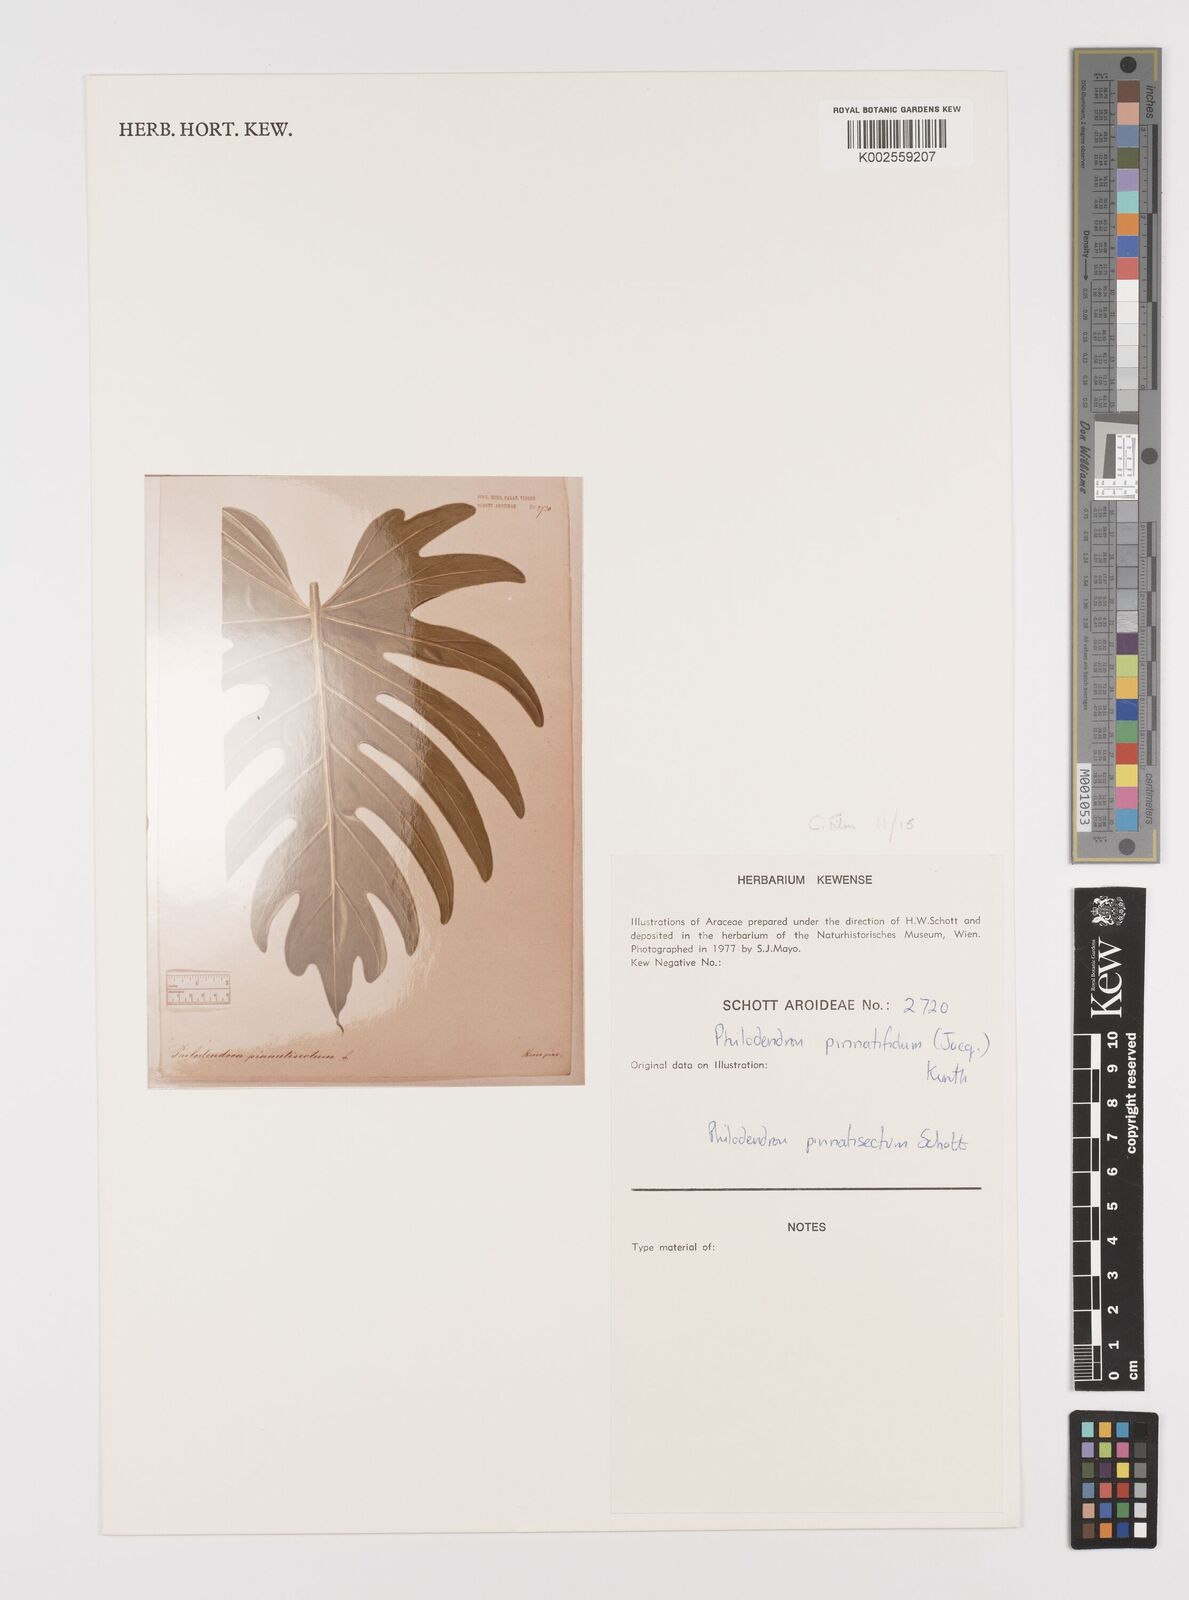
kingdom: Plantae
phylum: Tracheophyta
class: Liliopsida
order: Alismatales
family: Araceae
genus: Philodendron
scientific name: Philodendron pinnatifidum
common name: Comb-leaf philodendron
